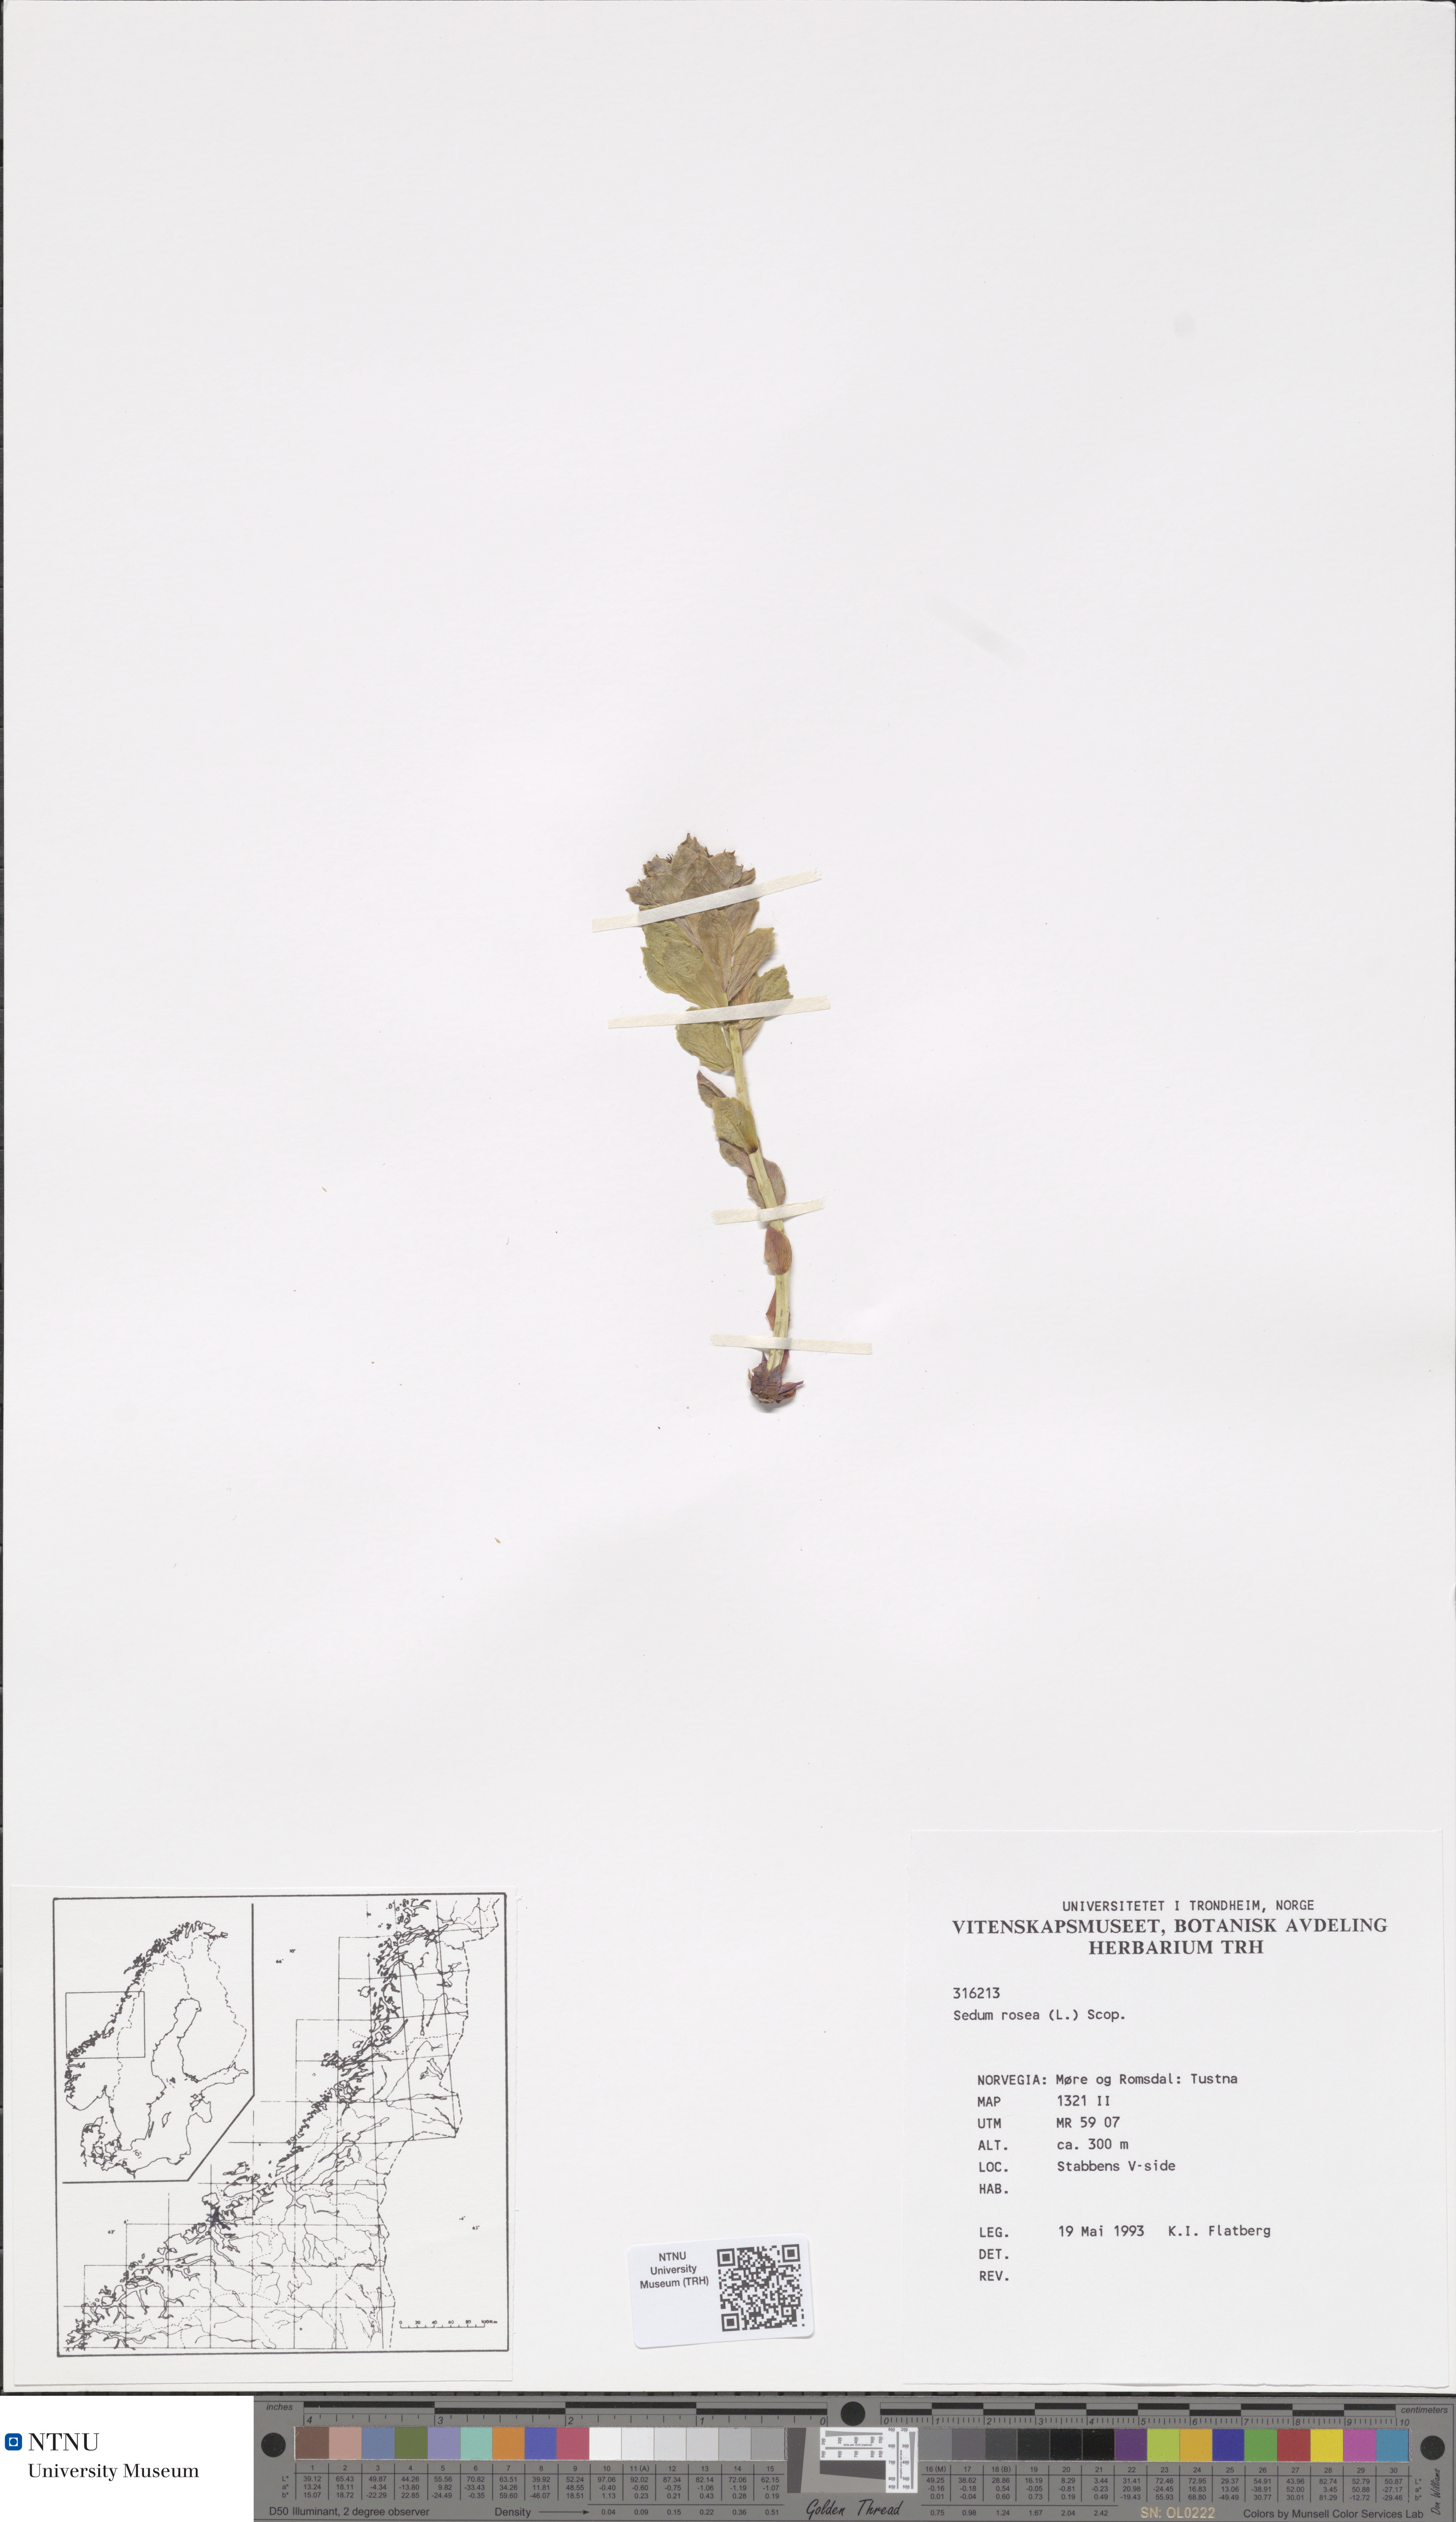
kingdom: Plantae
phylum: Tracheophyta
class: Magnoliopsida
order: Saxifragales
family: Crassulaceae
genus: Rhodiola
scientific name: Rhodiola rosea
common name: Roseroot
